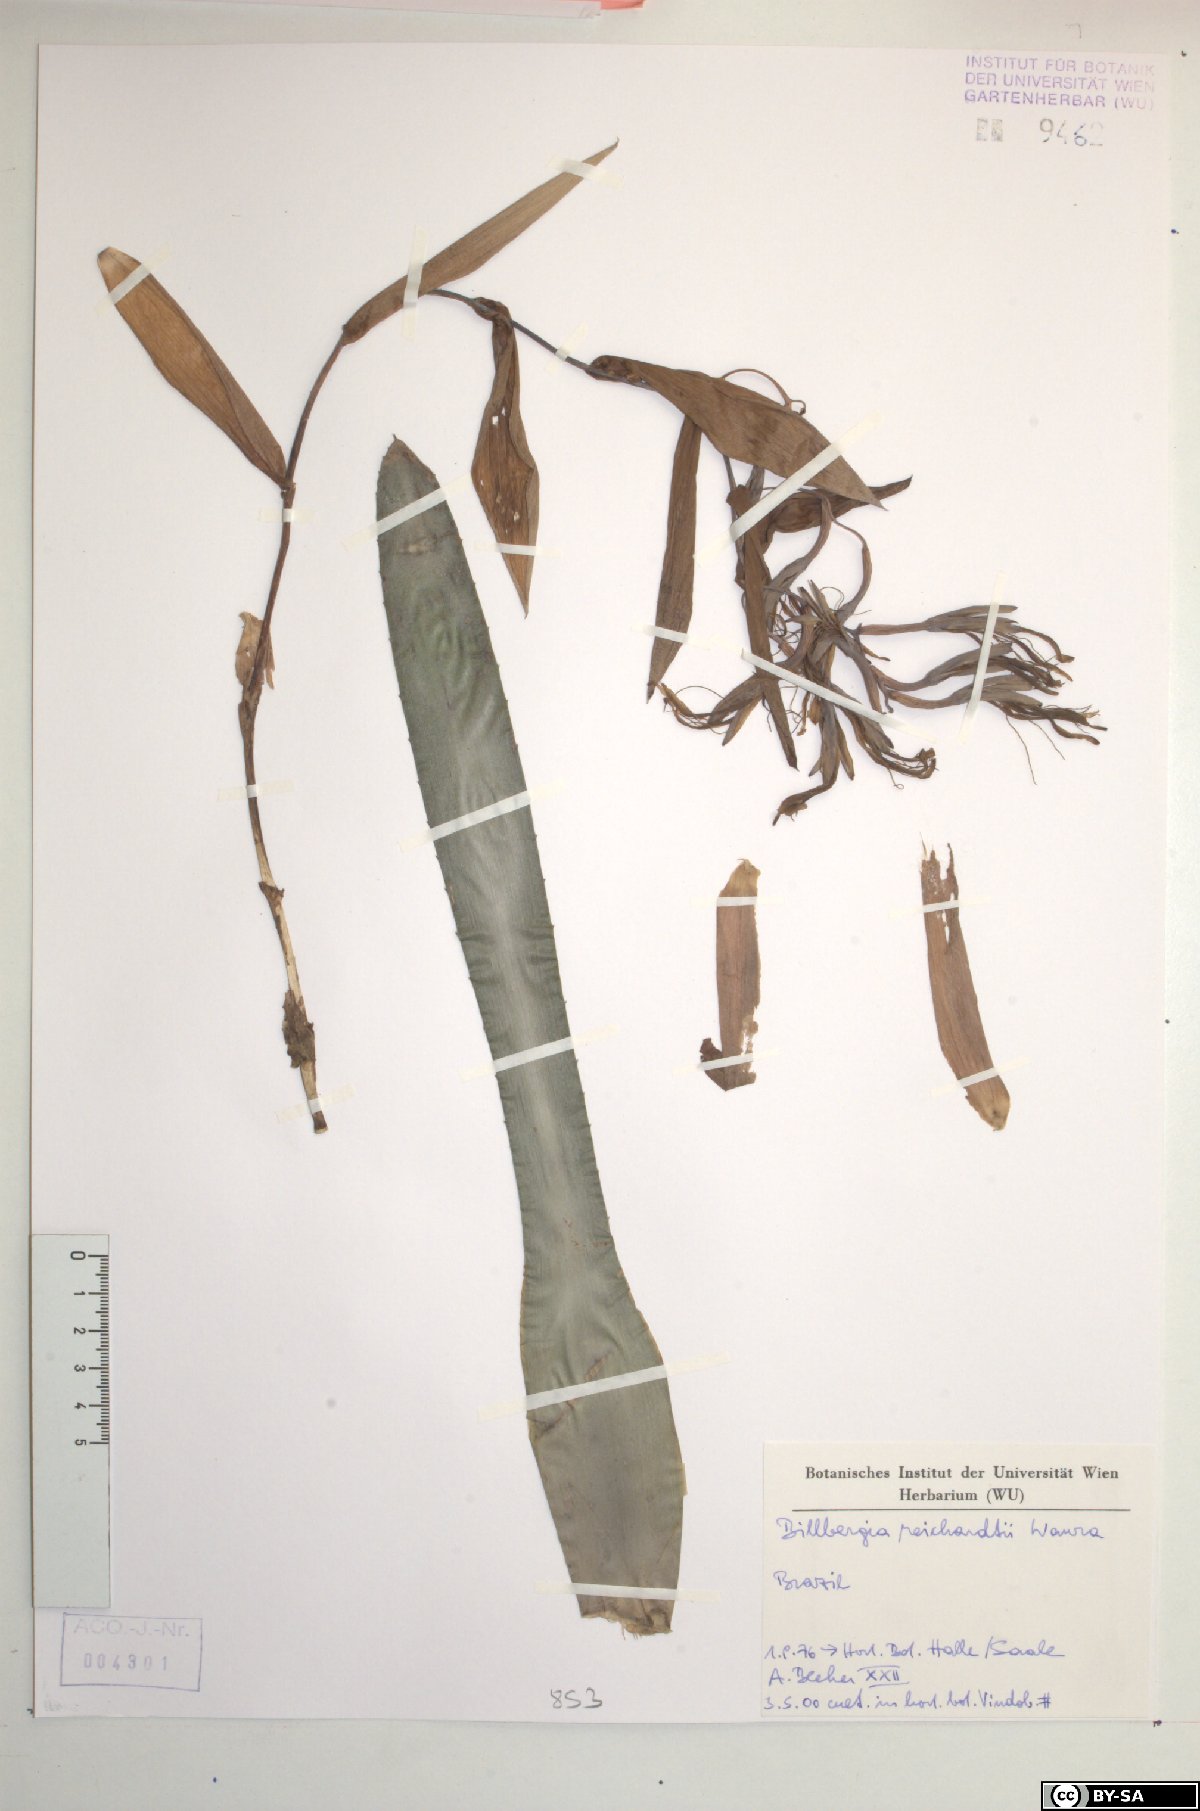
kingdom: Plantae
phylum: Tracheophyta
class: Liliopsida
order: Poales
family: Bromeliaceae
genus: Billbergia
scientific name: Billbergia reichardtii
